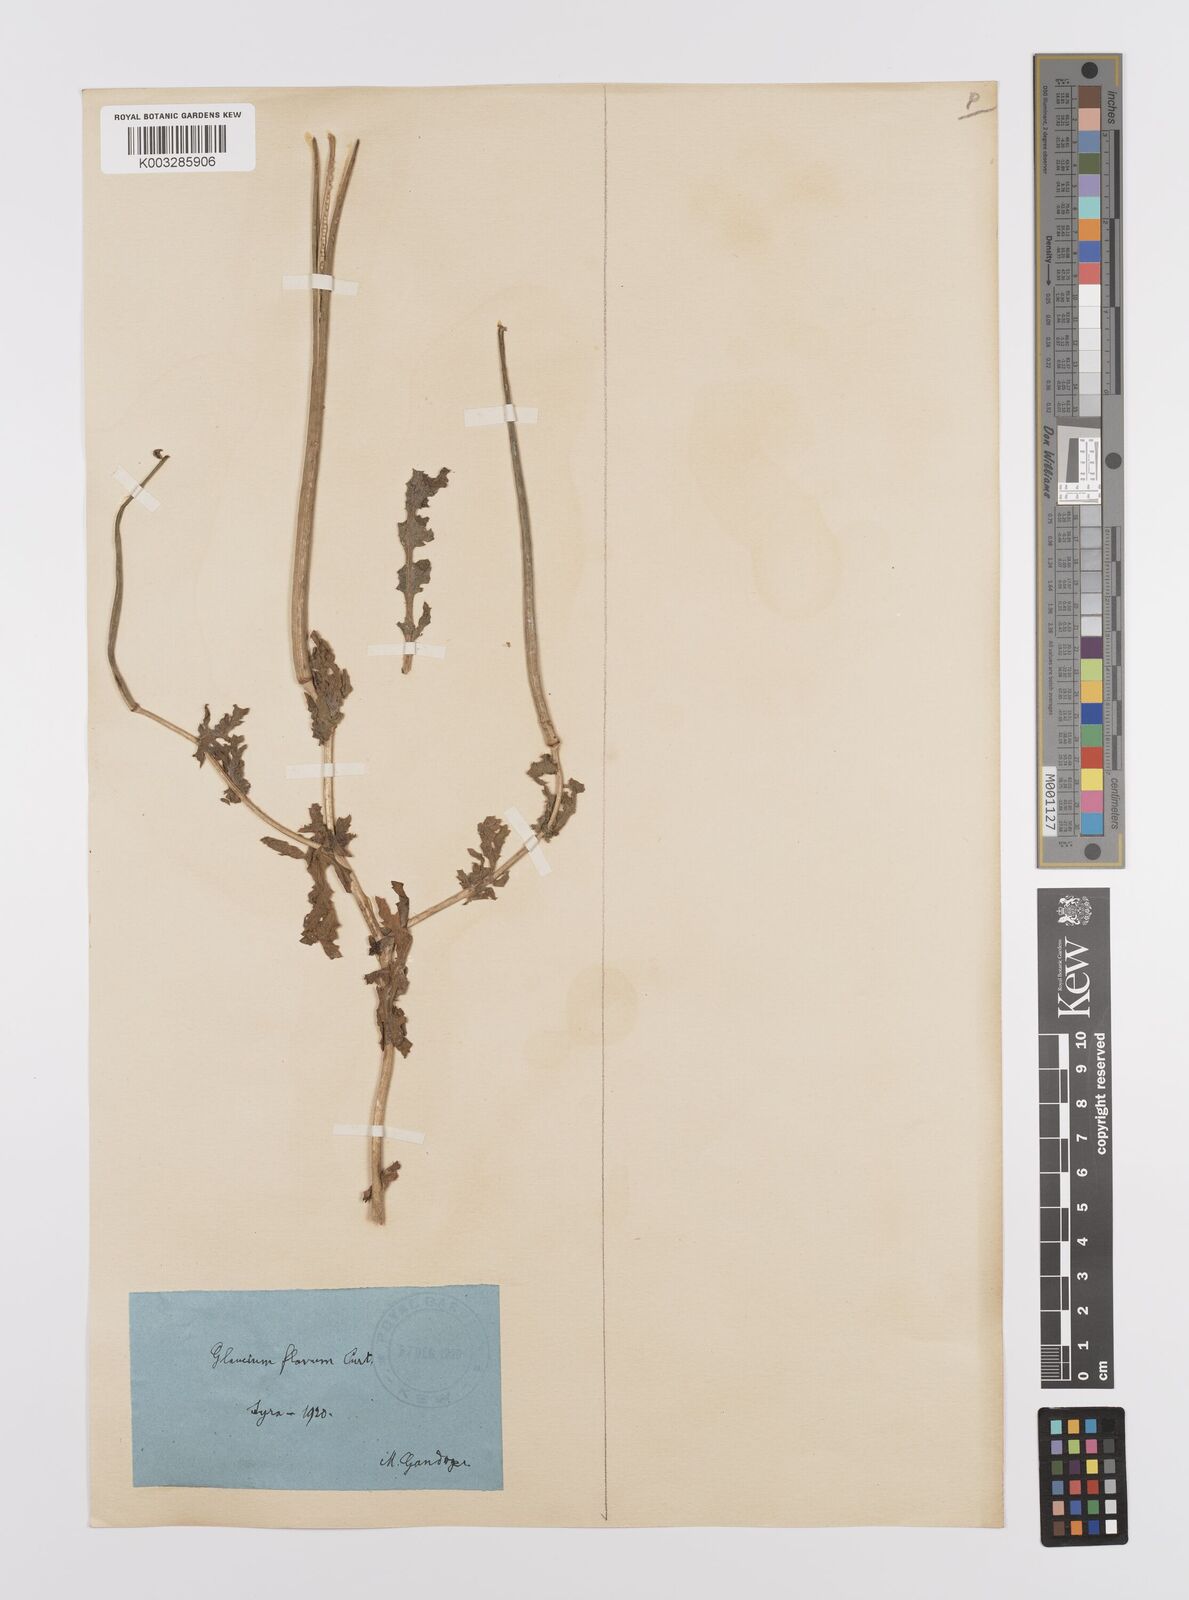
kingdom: Plantae
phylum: Tracheophyta
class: Magnoliopsida
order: Ranunculales
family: Papaveraceae
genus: Glaucium
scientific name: Glaucium flavum
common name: Yellow horned-poppy
